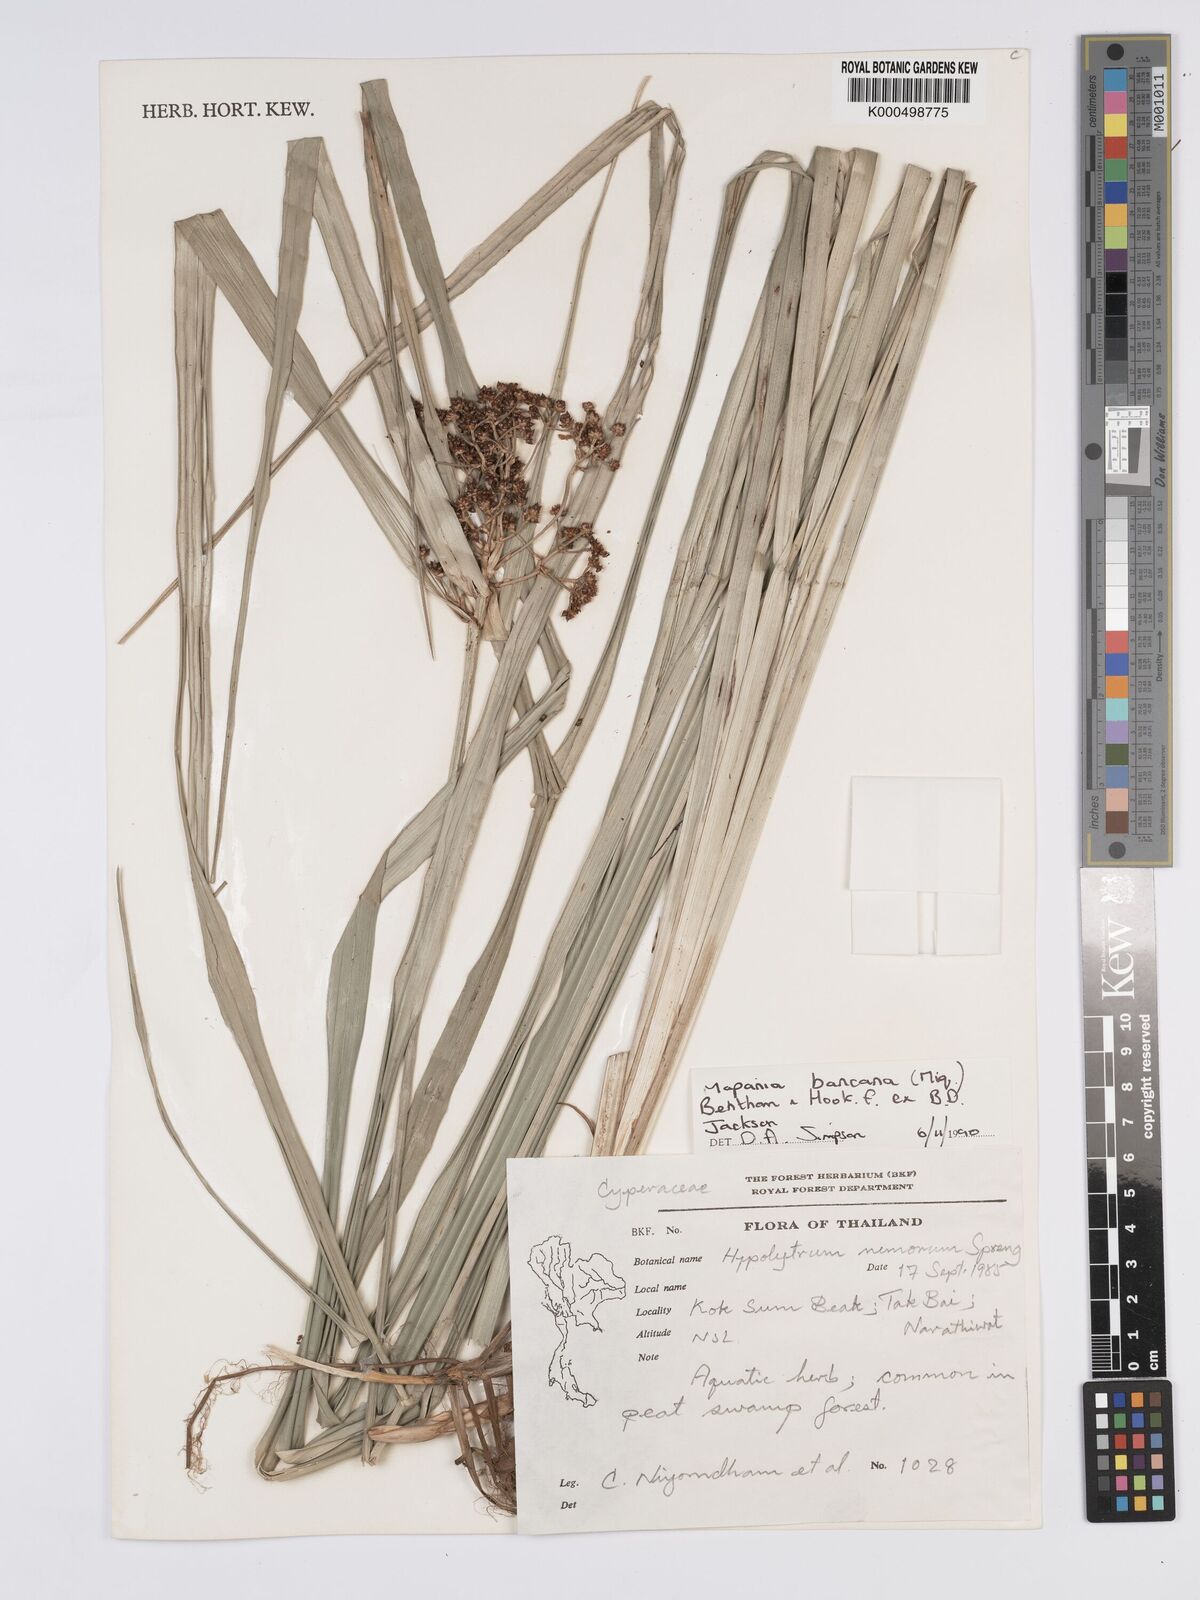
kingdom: Plantae
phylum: Tracheophyta
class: Liliopsida
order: Poales
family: Cyperaceae
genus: Mapania
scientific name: Mapania
